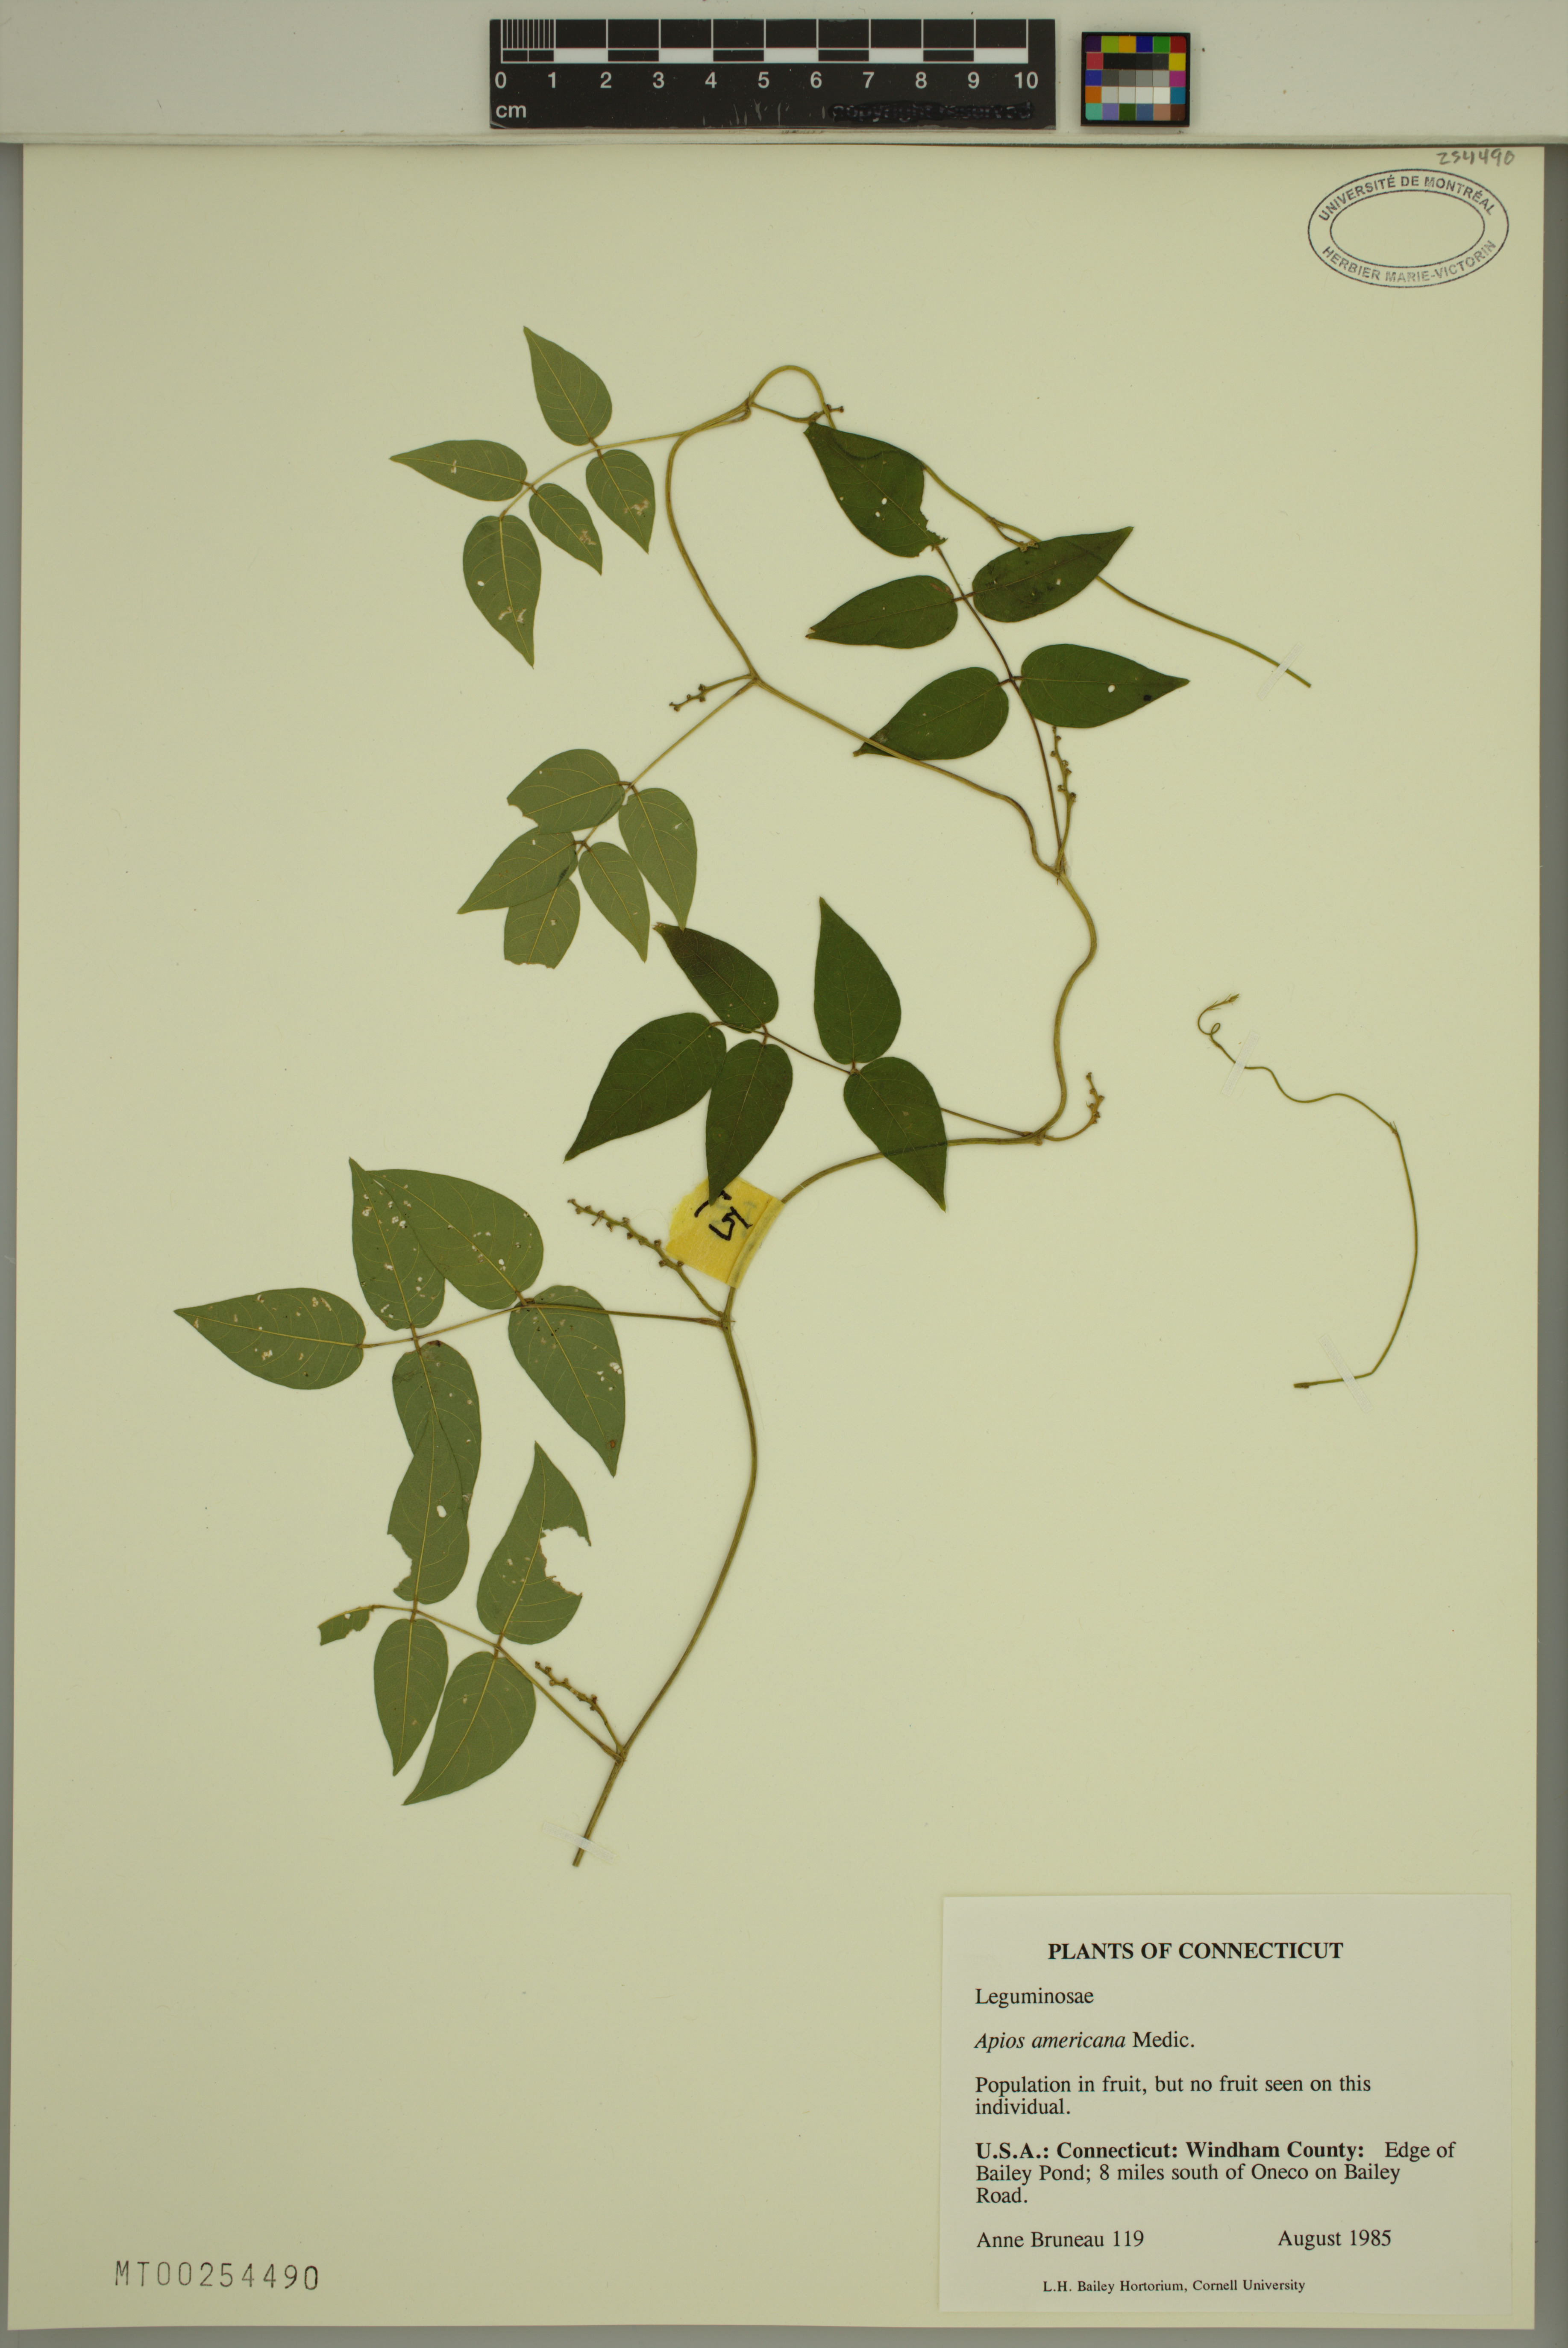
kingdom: Plantae
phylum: Tracheophyta
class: Magnoliopsida
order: Fabales
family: Fabaceae
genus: Apios
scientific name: Apios americana
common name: American potato-bean
